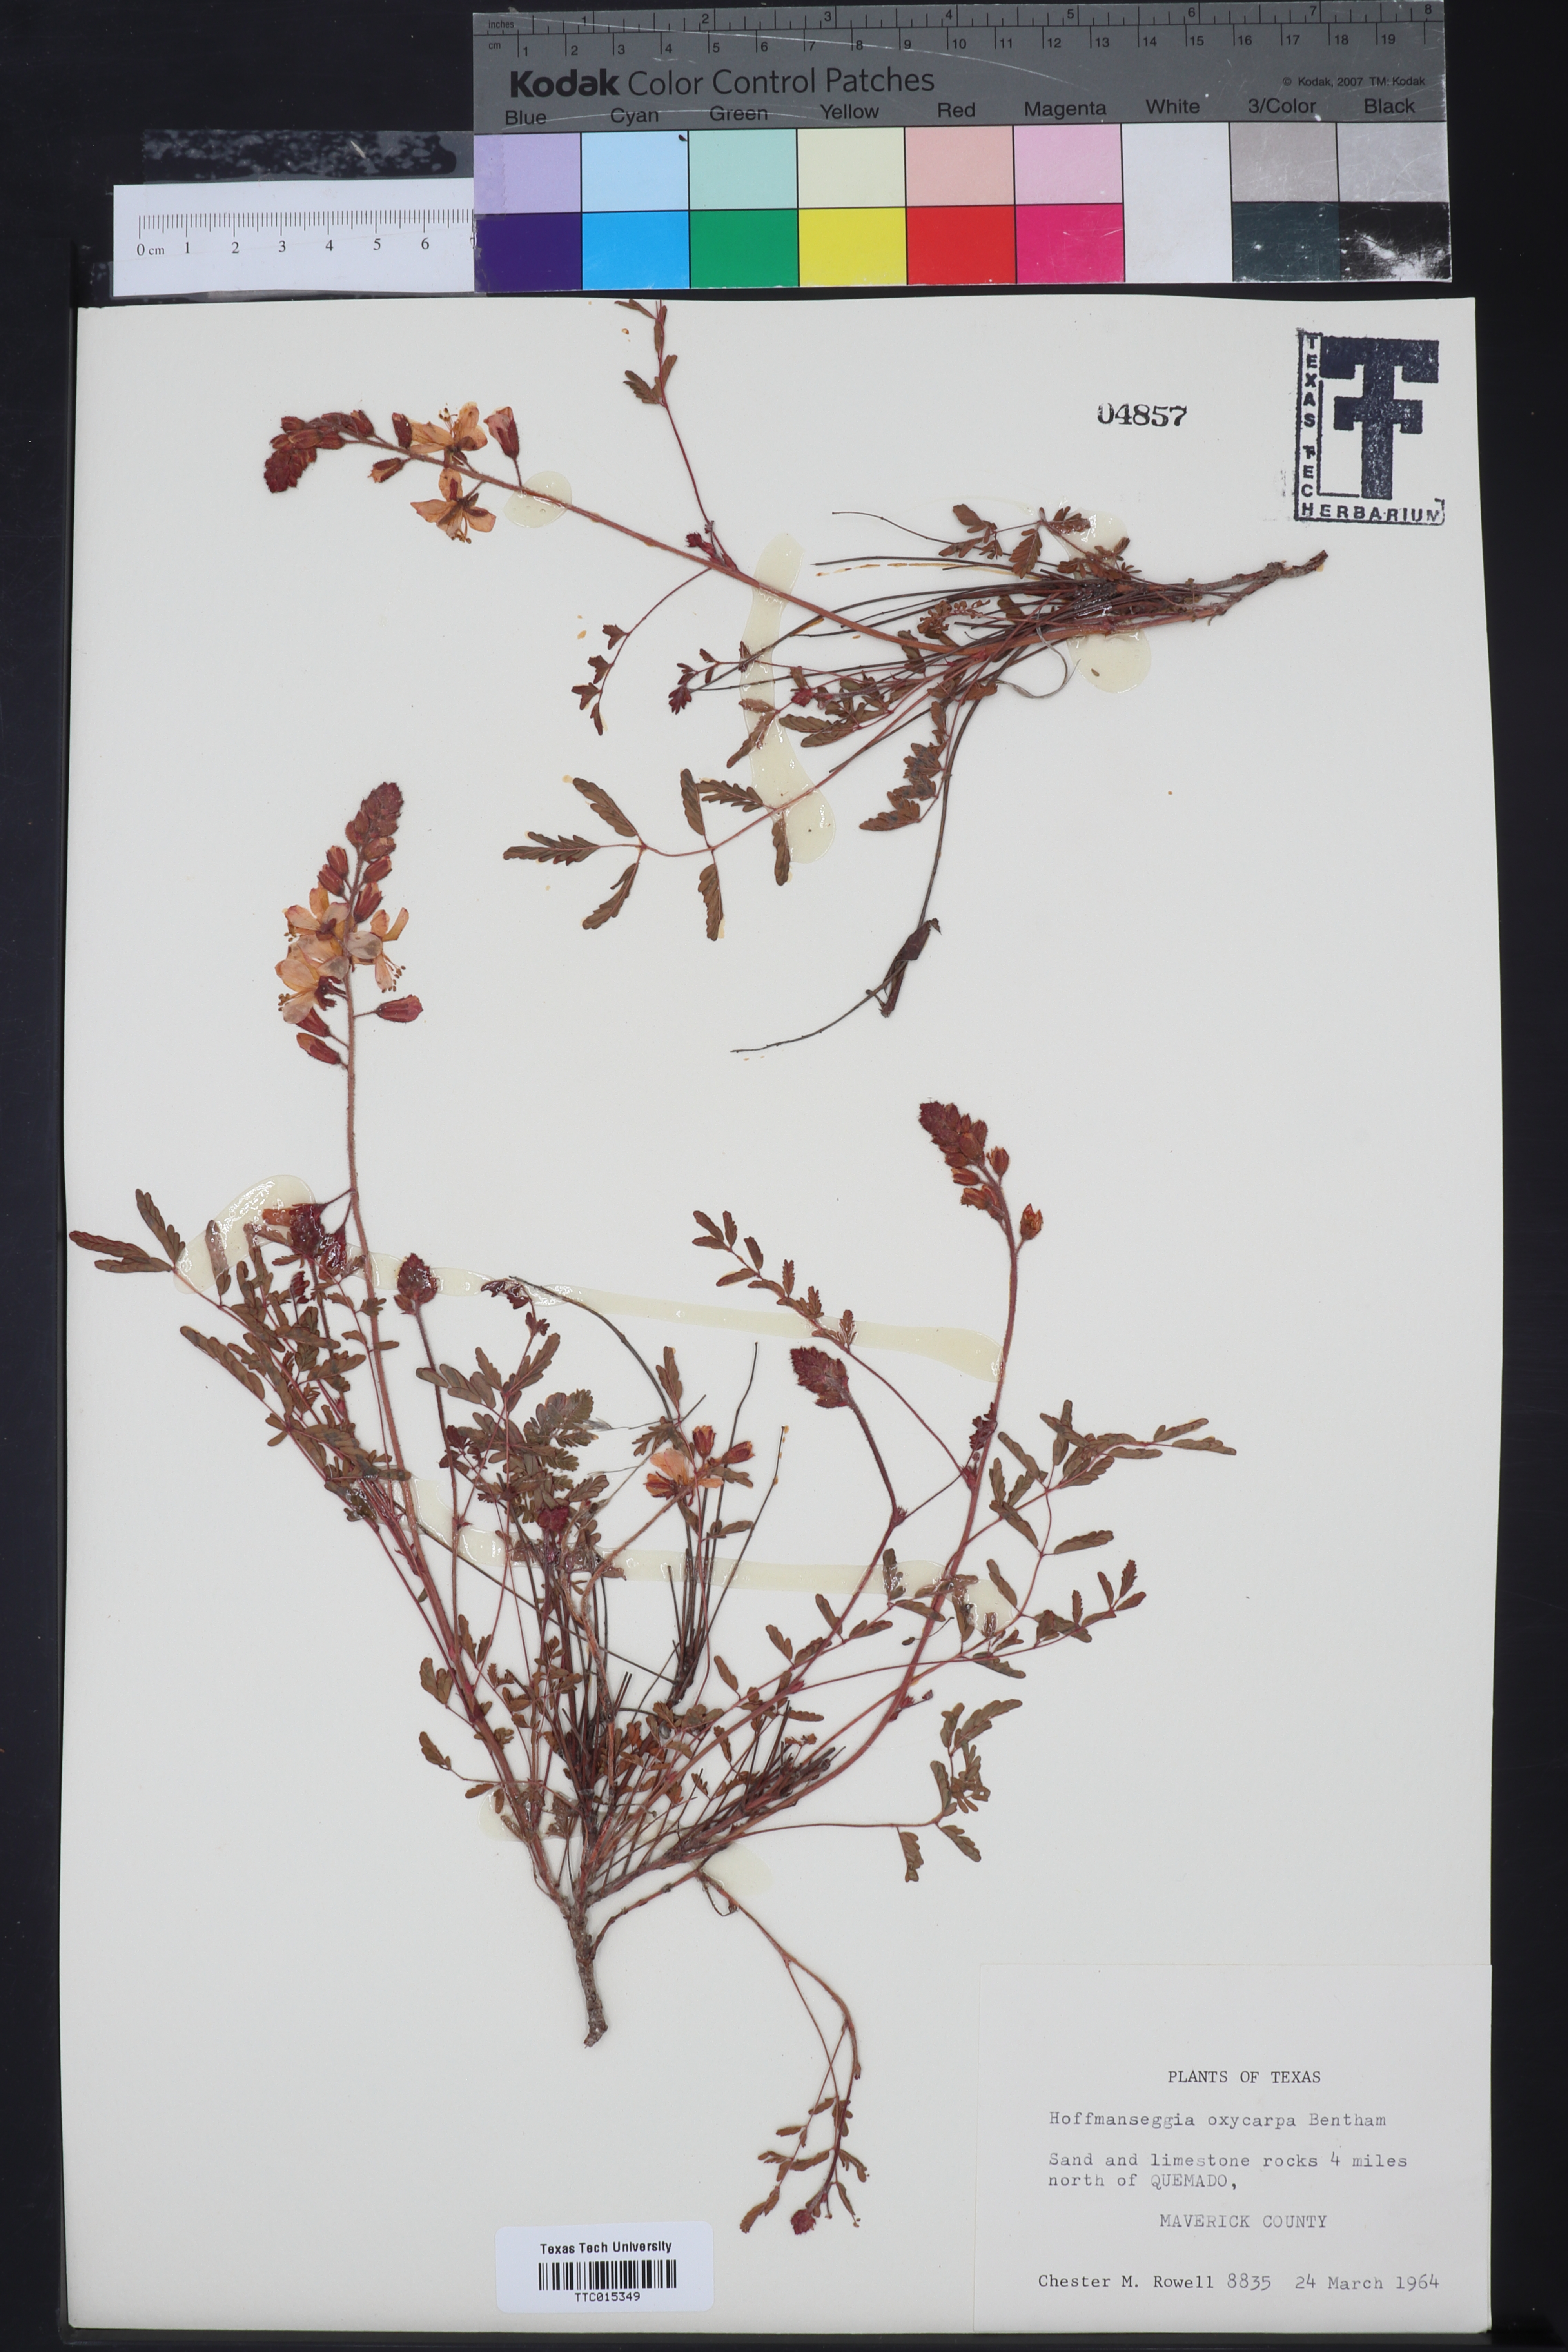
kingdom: Plantae
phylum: Tracheophyta
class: Magnoliopsida
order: Fabales
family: Fabaceae
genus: Hoffmannseggia
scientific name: Hoffmannseggia oxycarpa
